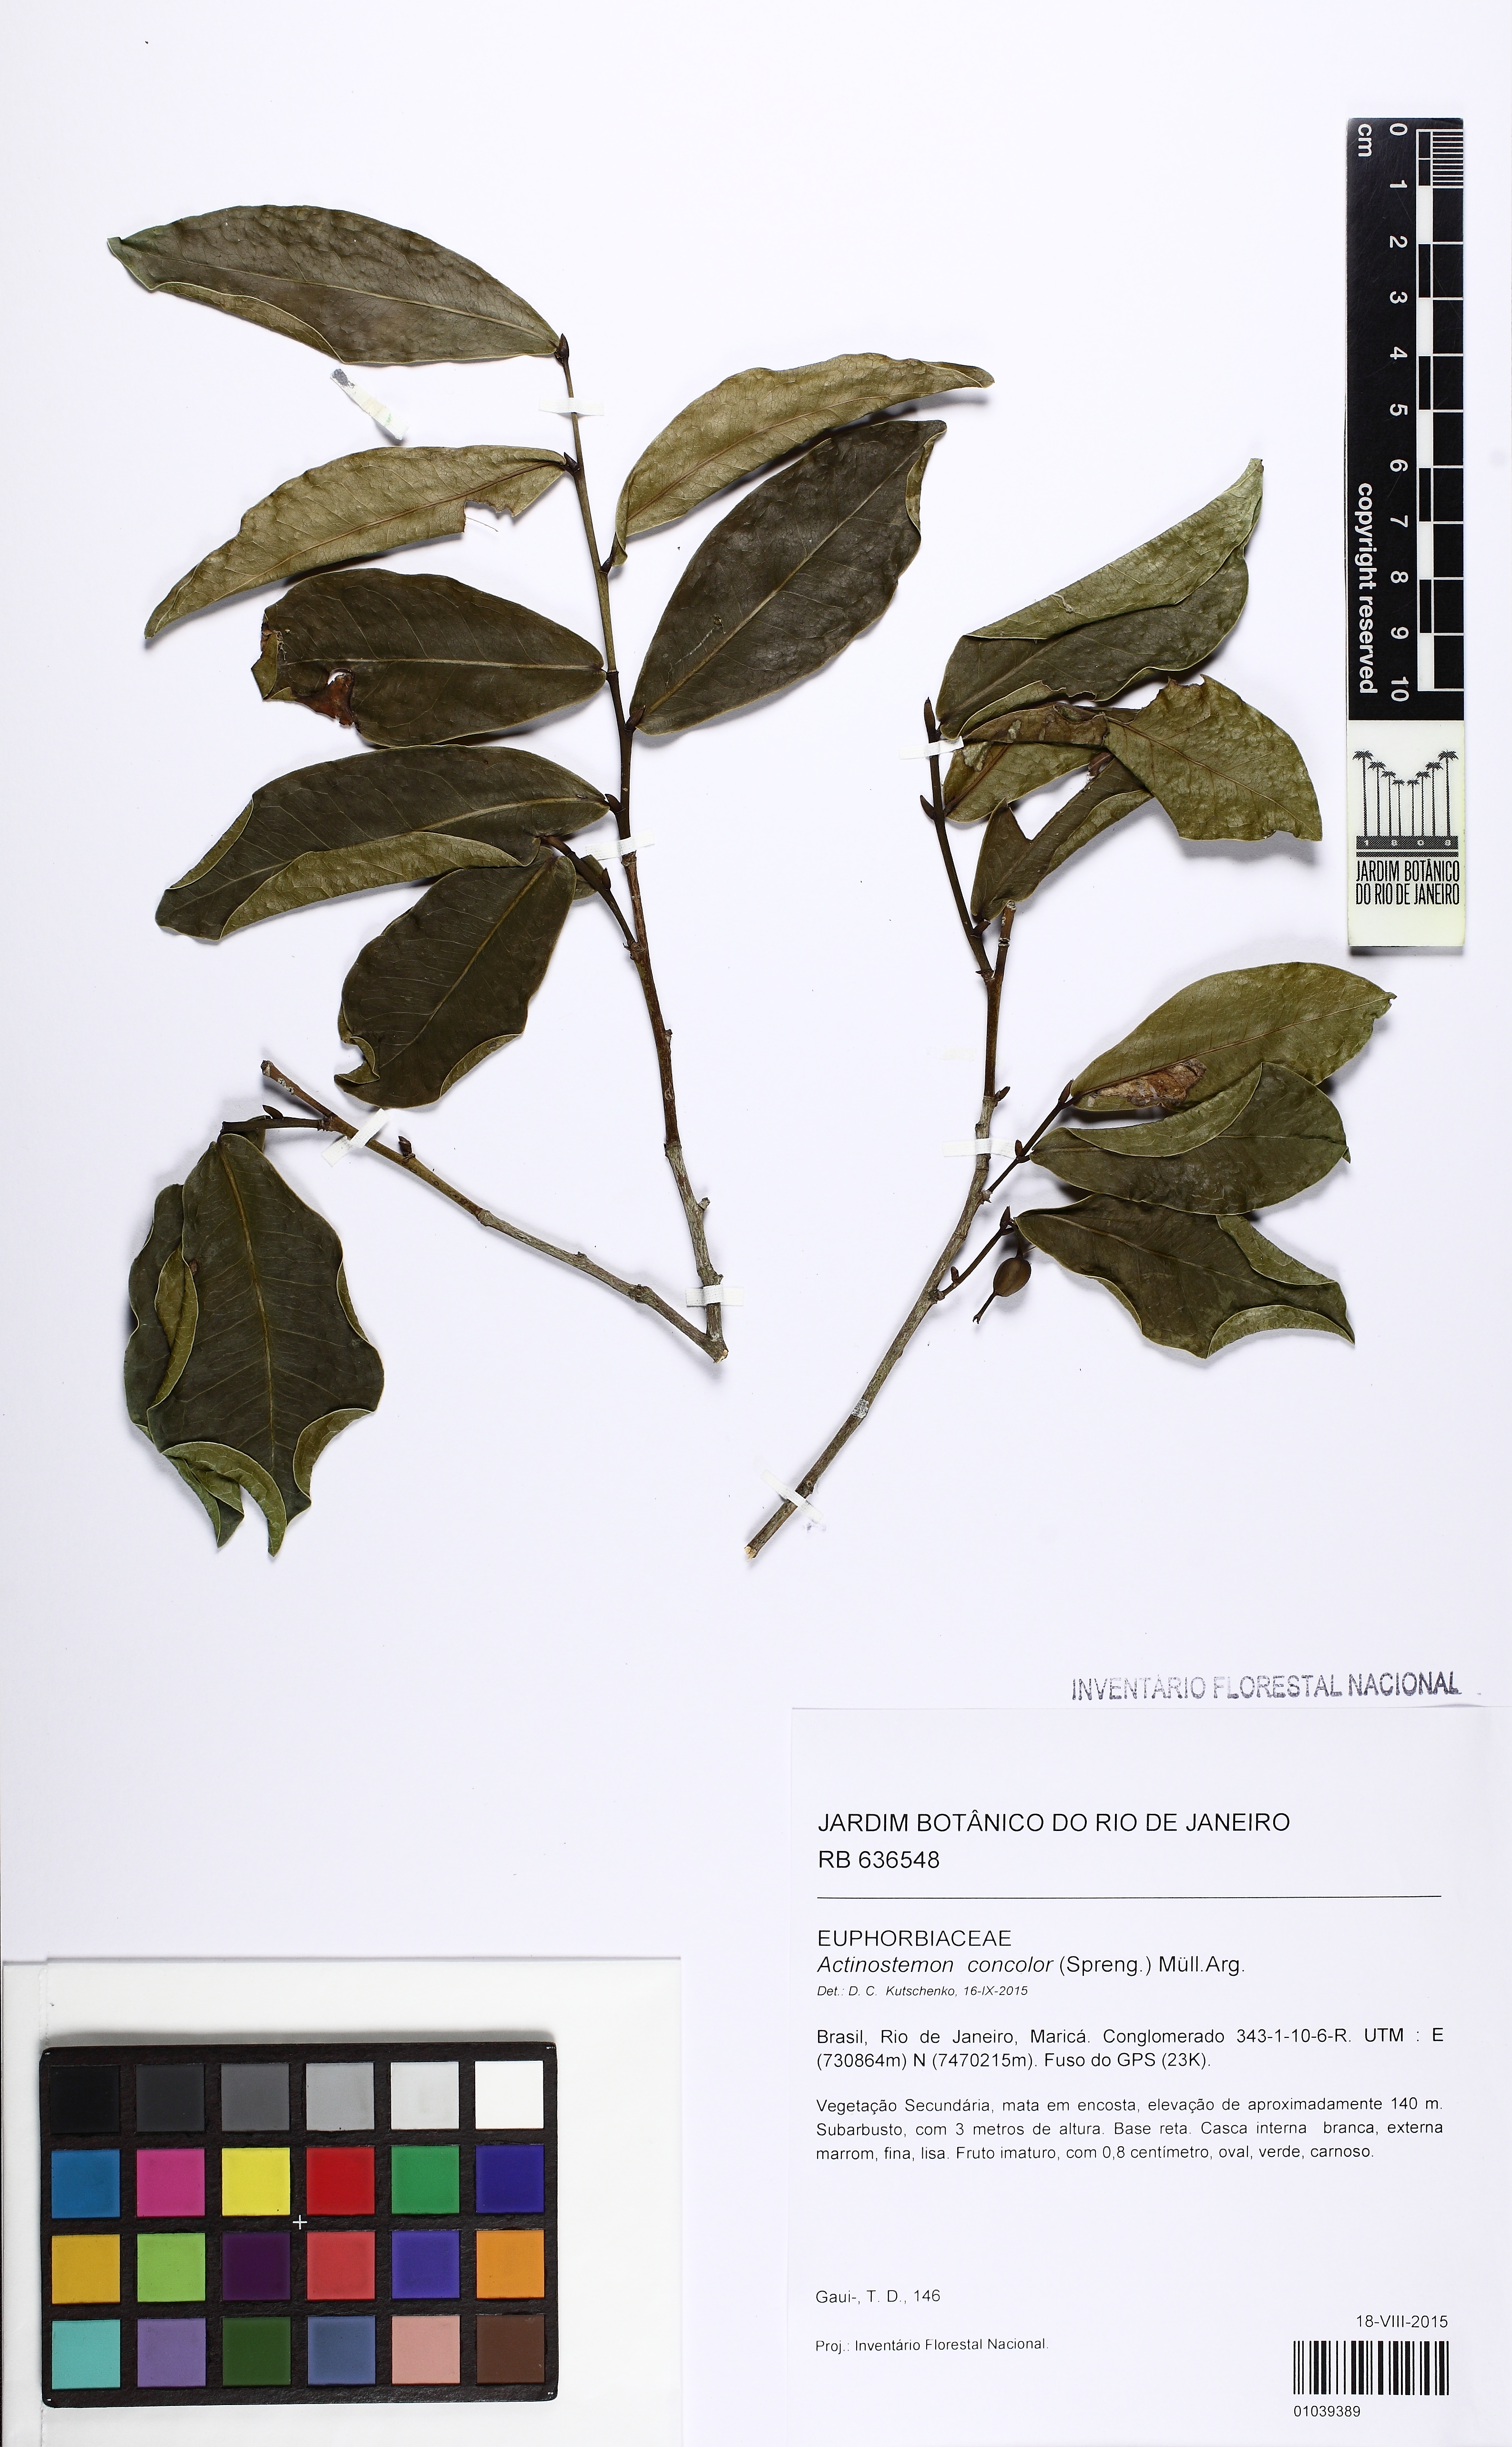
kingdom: Plantae
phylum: Tracheophyta
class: Magnoliopsida
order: Malpighiales
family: Euphorbiaceae
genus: Actinostemon
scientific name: Actinostemon concolor
